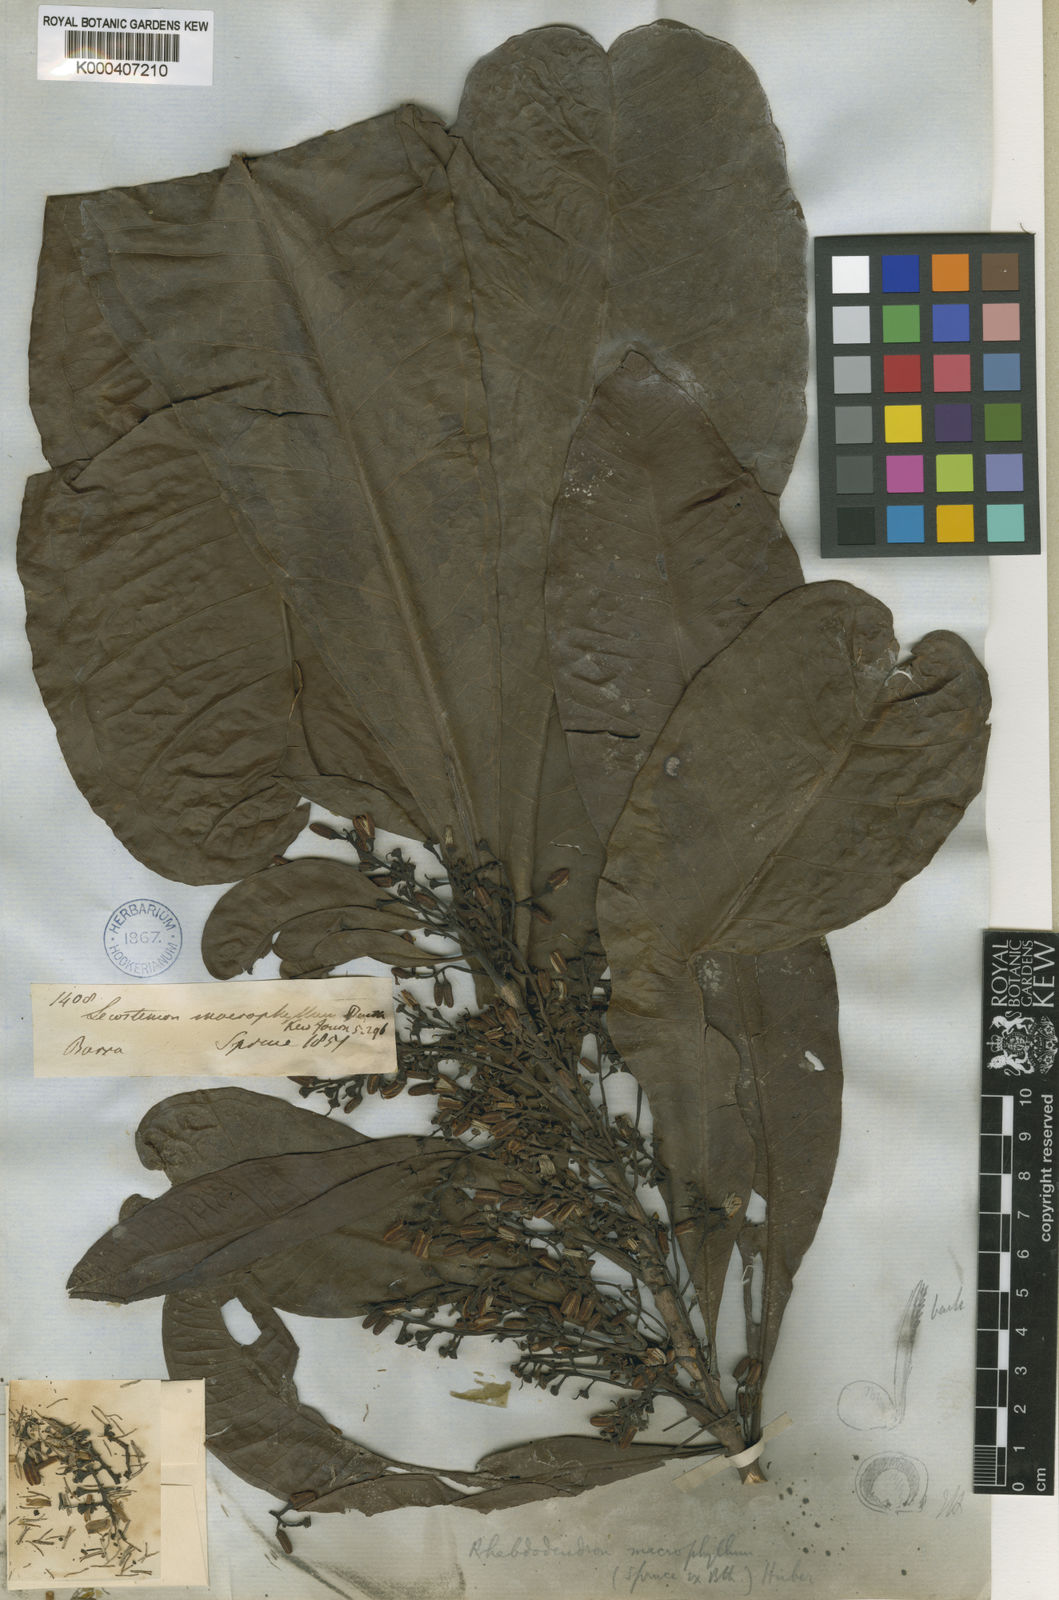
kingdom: Plantae
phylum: Tracheophyta
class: Magnoliopsida
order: Caryophyllales
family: Rhabdodendraceae
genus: Rhabdodendron
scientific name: Rhabdodendron macrophyllum
